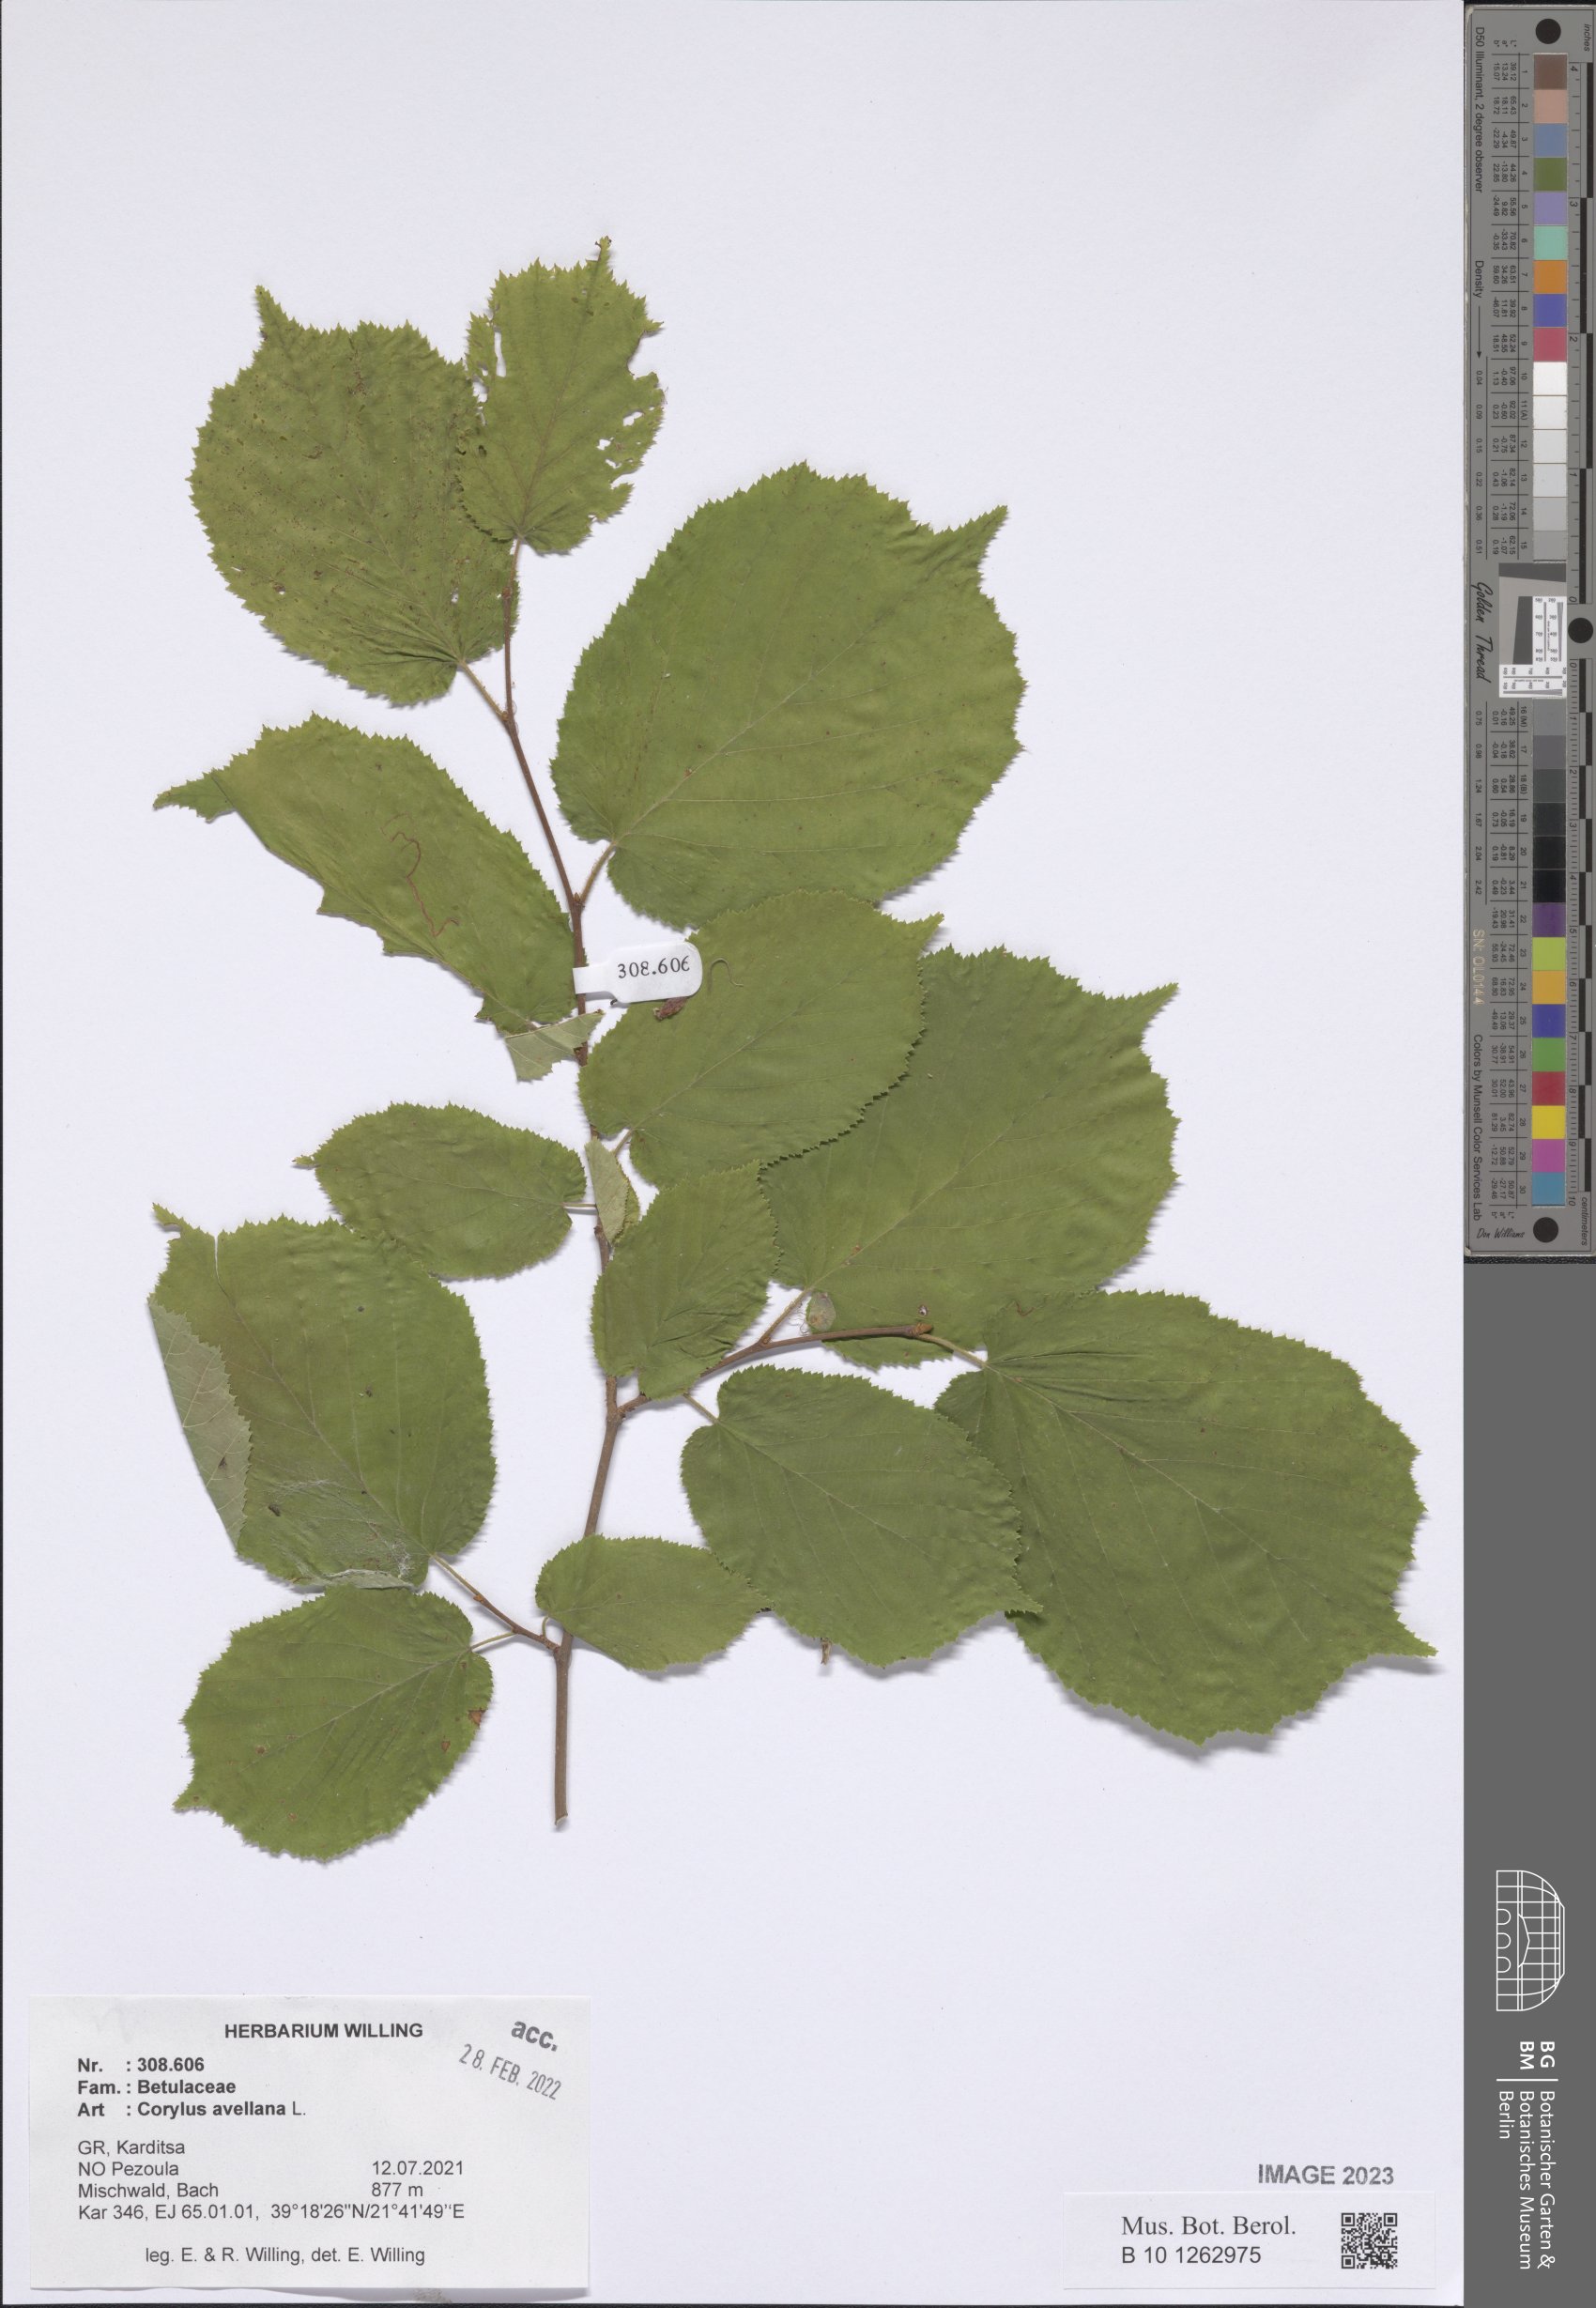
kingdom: Plantae
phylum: Tracheophyta
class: Magnoliopsida
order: Fagales
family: Betulaceae
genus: Corylus
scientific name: Corylus avellana
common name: European hazel
